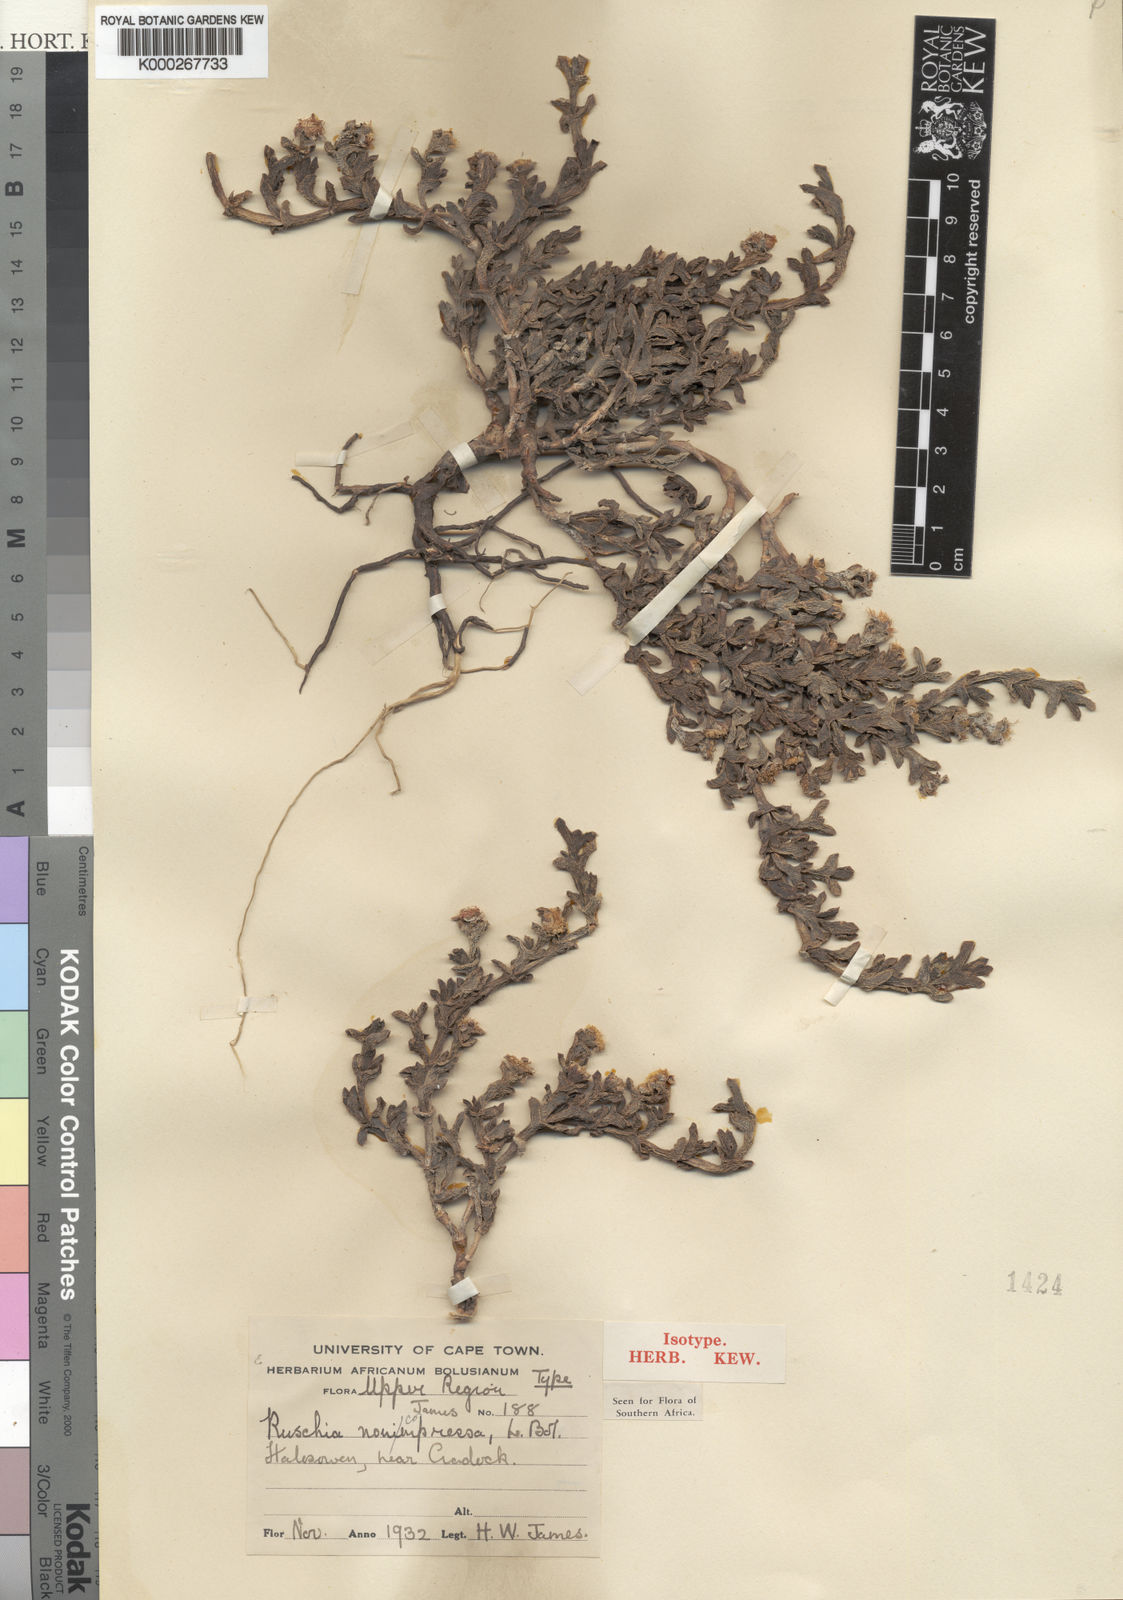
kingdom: Plantae
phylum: Tracheophyta
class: Magnoliopsida
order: Caryophyllales
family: Aizoaceae
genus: Ruschia
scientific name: Ruschia nonimpressa
